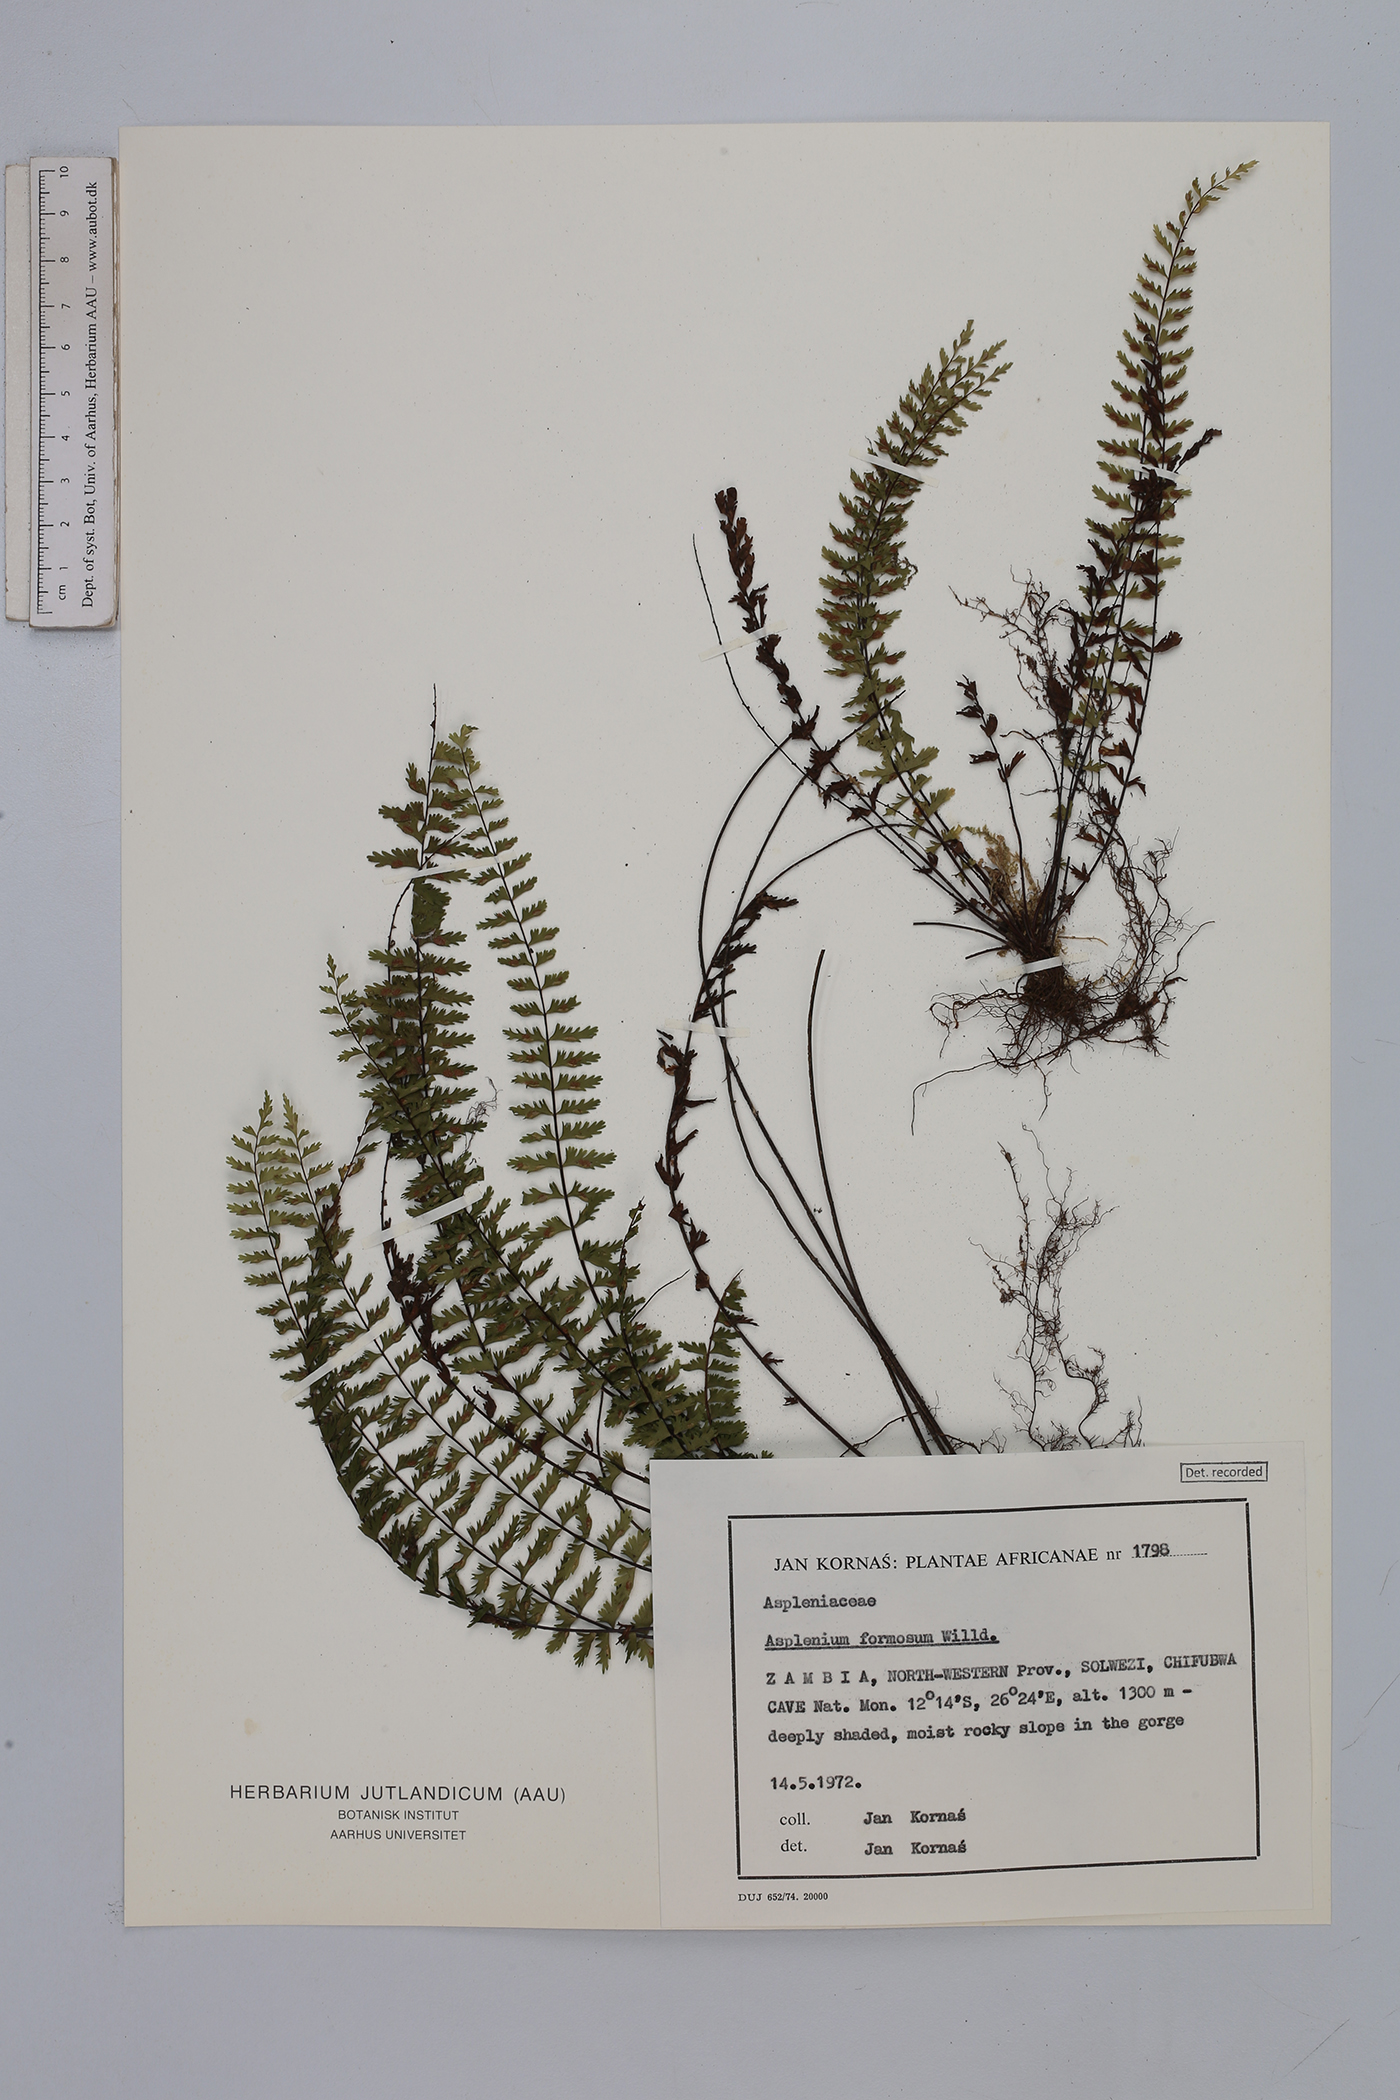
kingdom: Plantae
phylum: Tracheophyta
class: Polypodiopsida
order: Polypodiales
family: Aspleniaceae
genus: Asplenium
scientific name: Asplenium formosum
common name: Showy spleenwort
